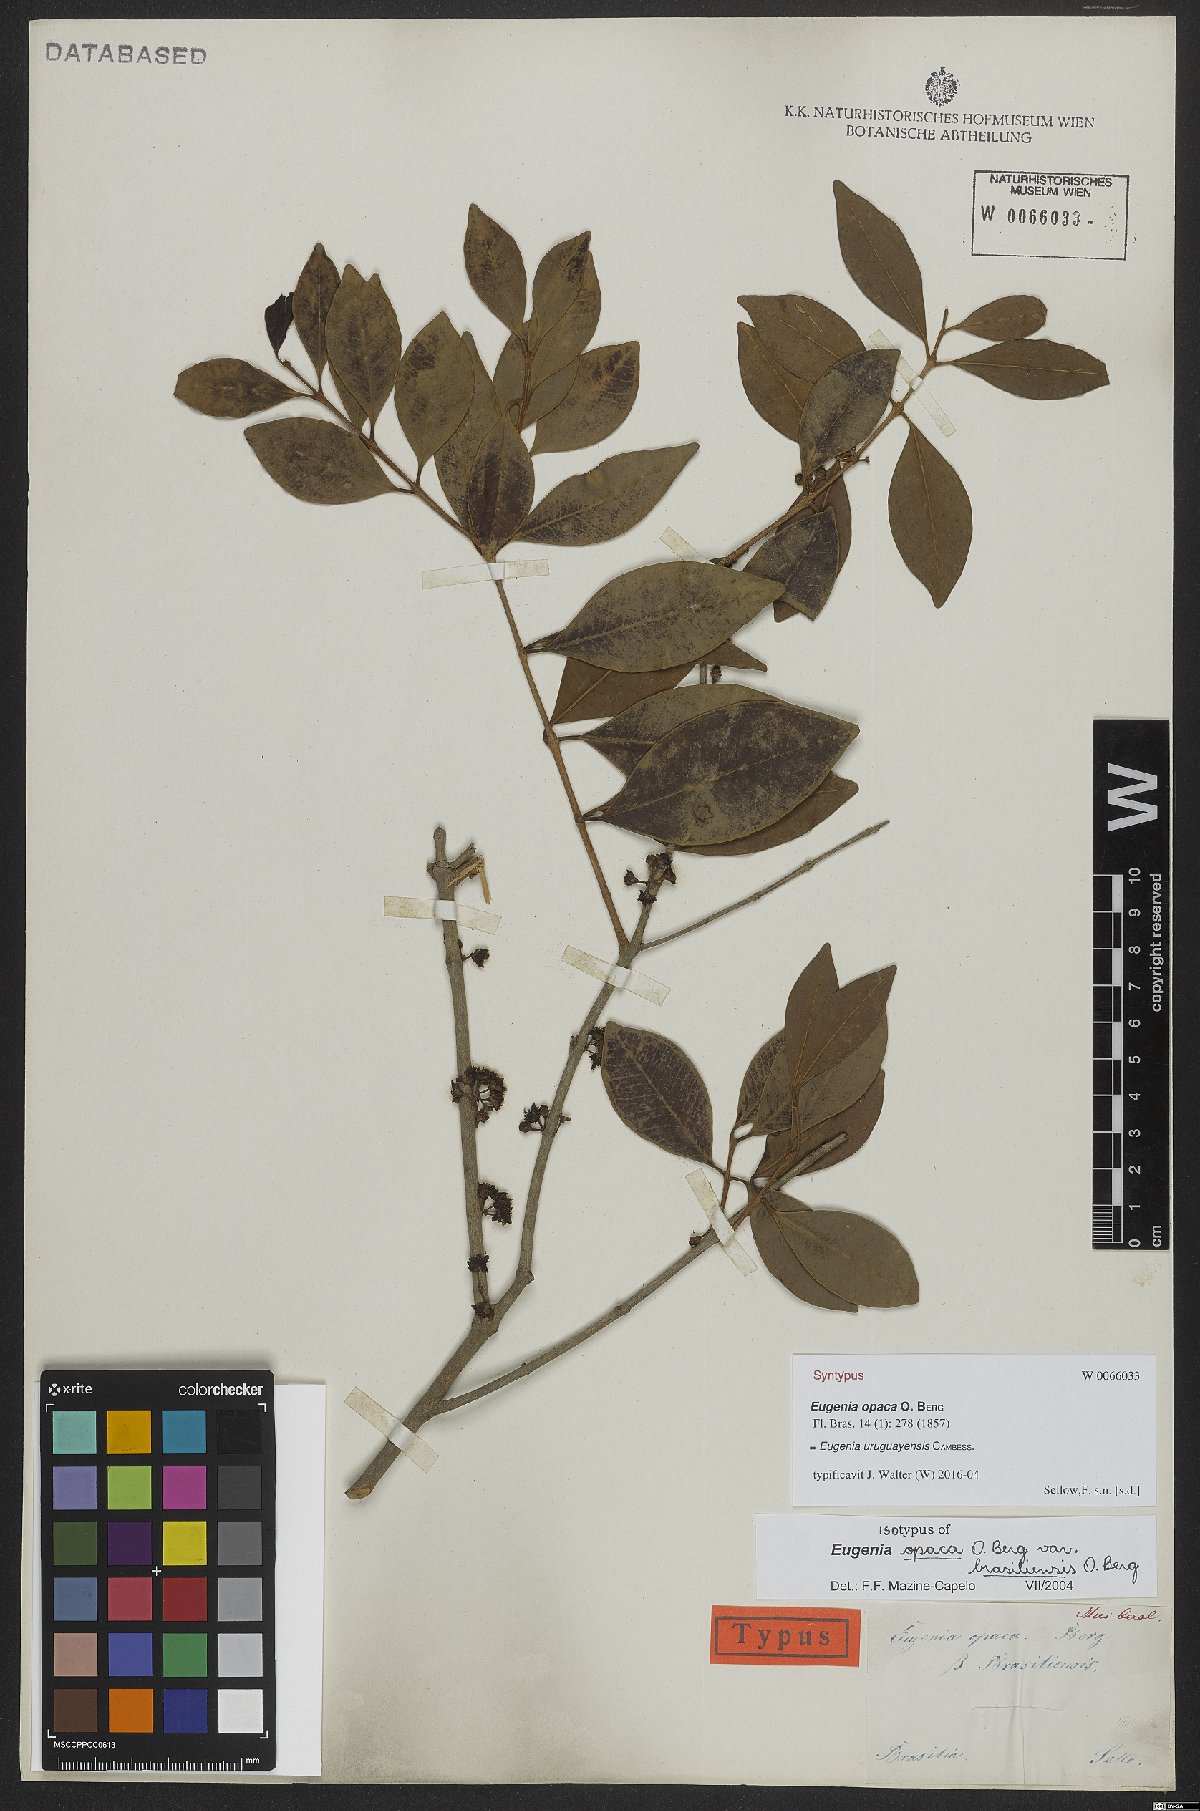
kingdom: Plantae
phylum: Tracheophyta
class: Magnoliopsida
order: Myrtales
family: Myrtaceae
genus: Eugenia
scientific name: Eugenia uruguayensis
